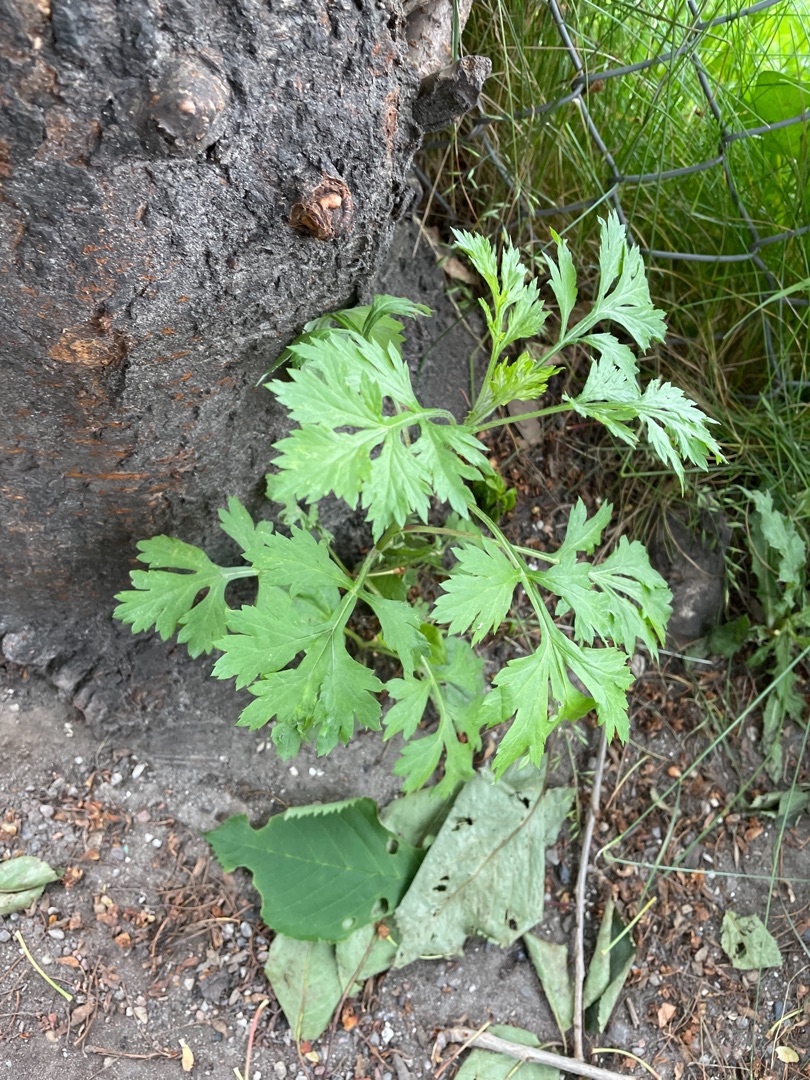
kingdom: Plantae
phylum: Tracheophyta
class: Magnoliopsida
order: Asterales
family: Asteraceae
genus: Artemisia
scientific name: Artemisia vulgaris
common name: Grå-bynke
